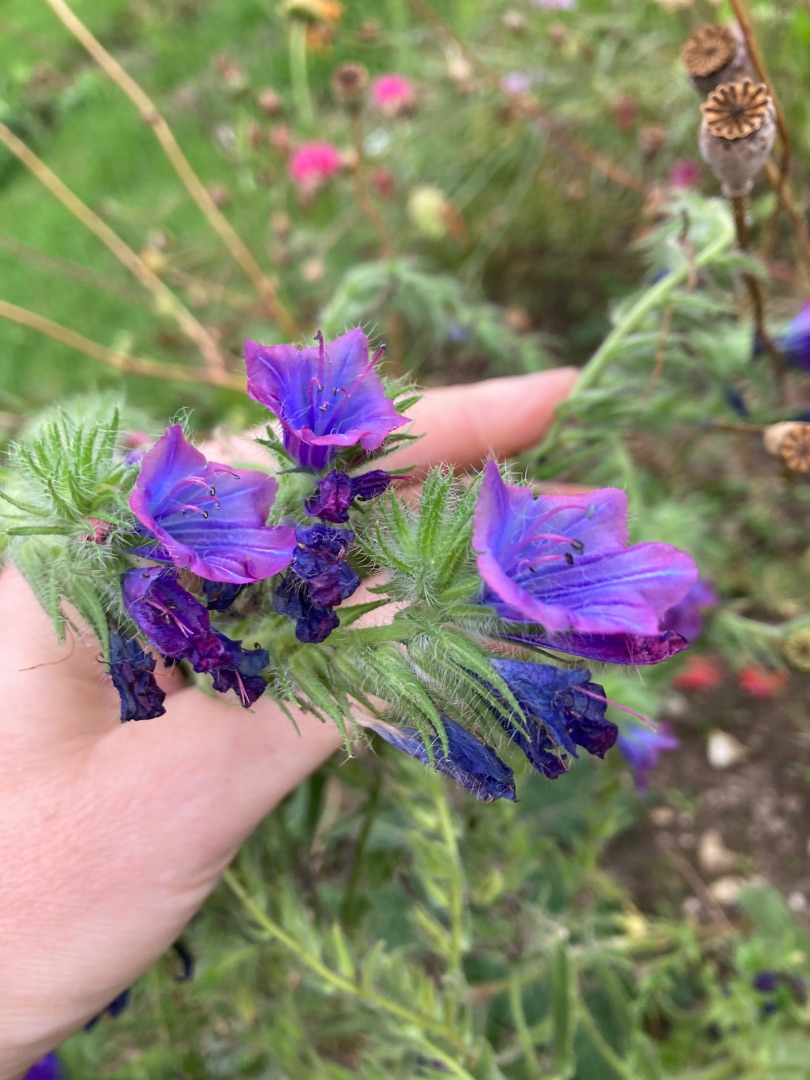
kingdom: Plantae
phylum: Tracheophyta
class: Magnoliopsida
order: Boraginales
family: Boraginaceae
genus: Echium
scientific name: Echium plantagineum
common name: Vejbred-slangehoved
